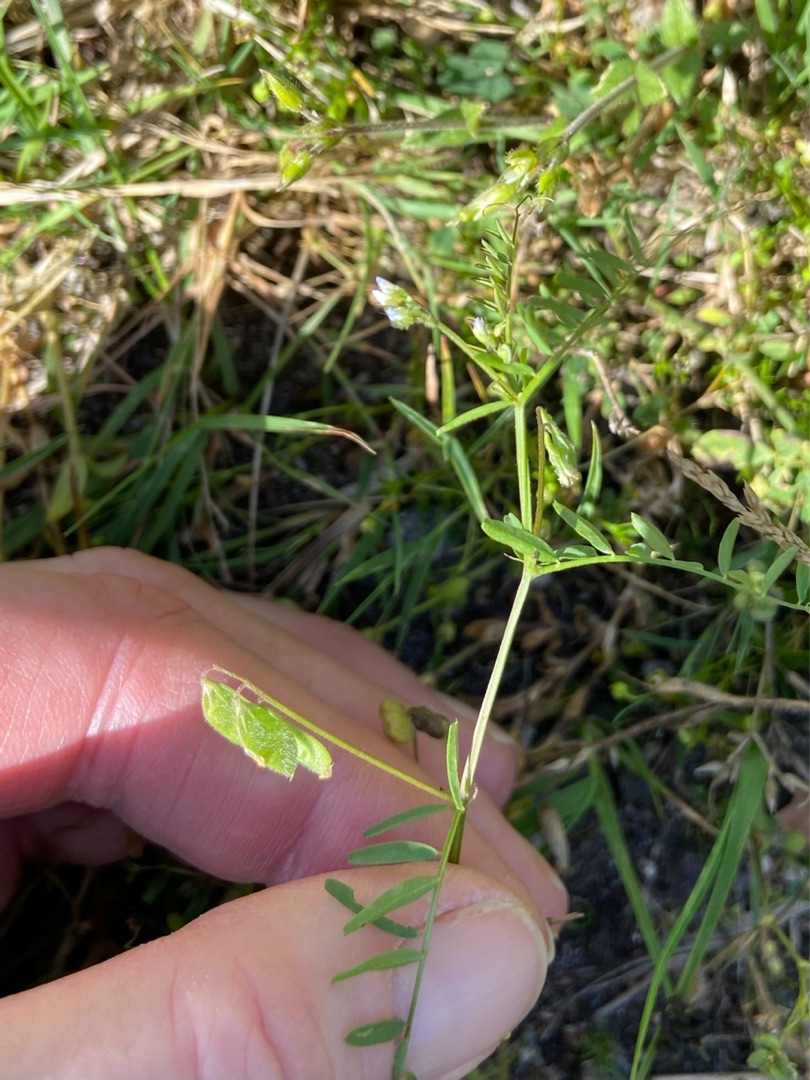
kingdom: Plantae
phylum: Tracheophyta
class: Magnoliopsida
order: Fabales
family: Fabaceae
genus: Vicia
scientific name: Vicia hirsuta
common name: Tofrøet vikke
